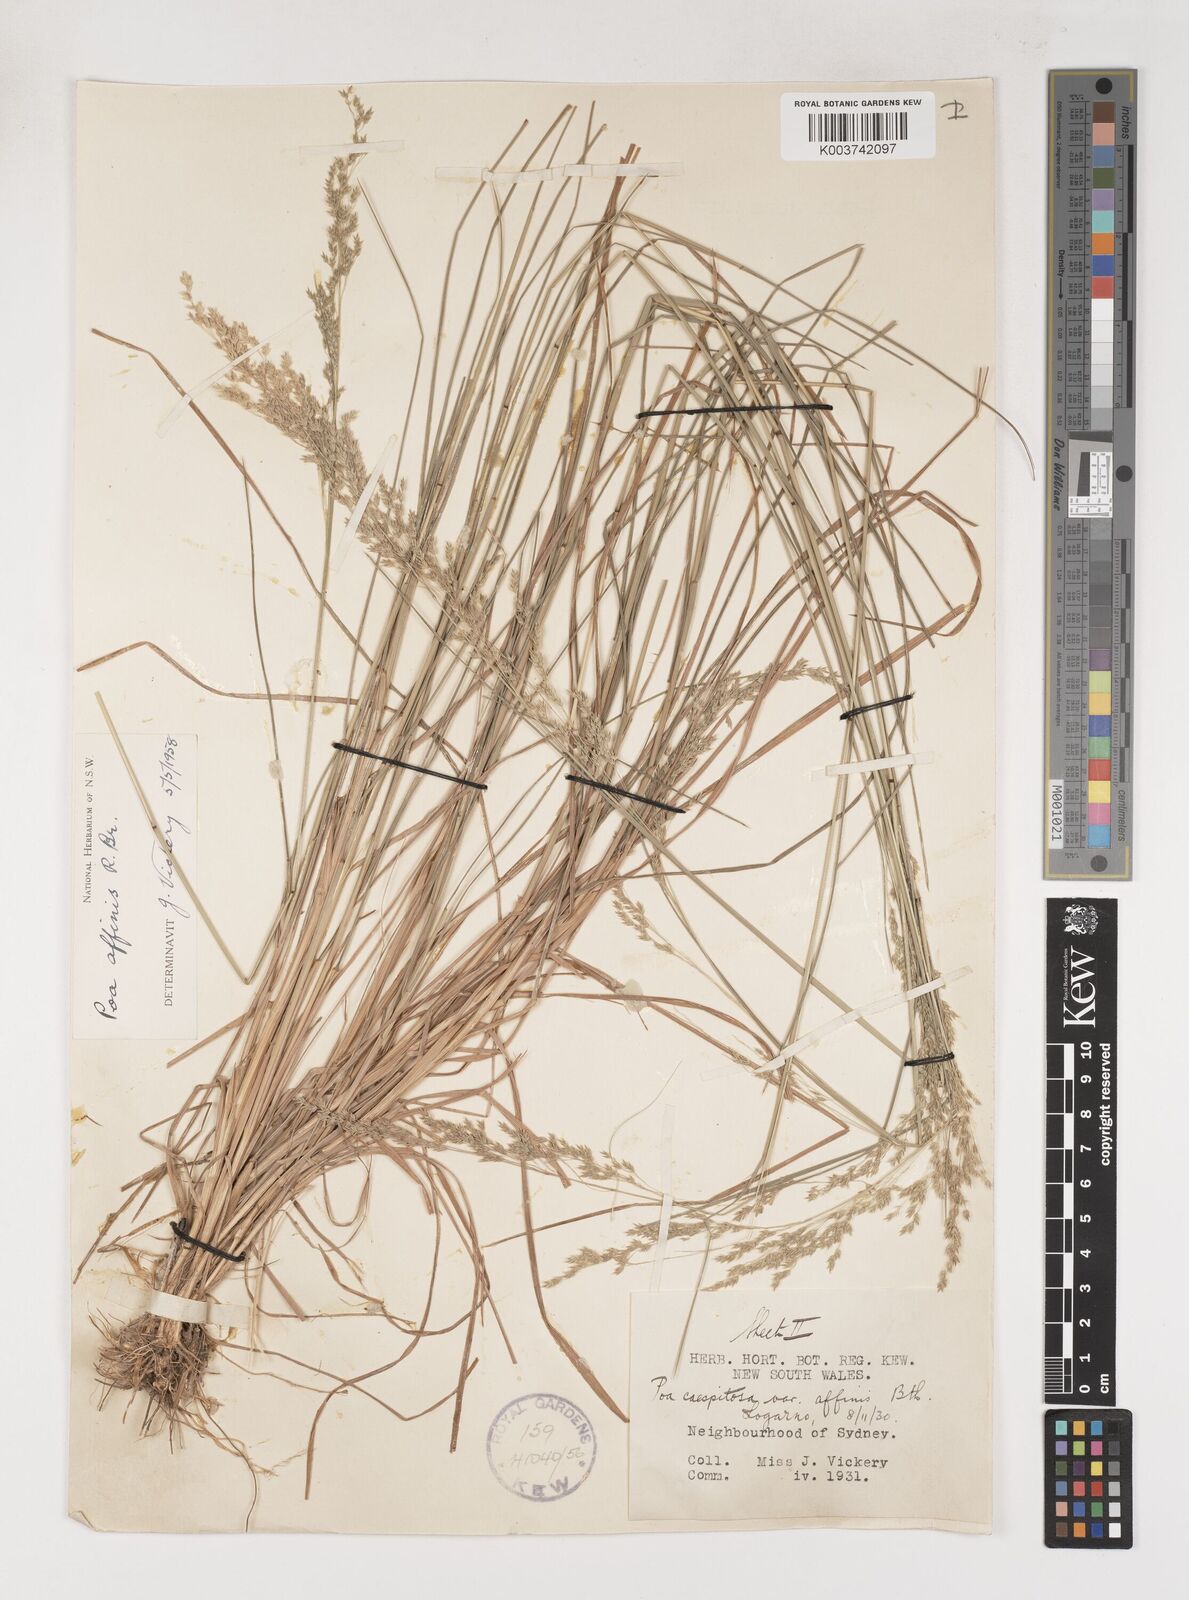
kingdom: Plantae
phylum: Tracheophyta
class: Liliopsida
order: Poales
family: Poaceae
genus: Poa
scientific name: Poa affinis
